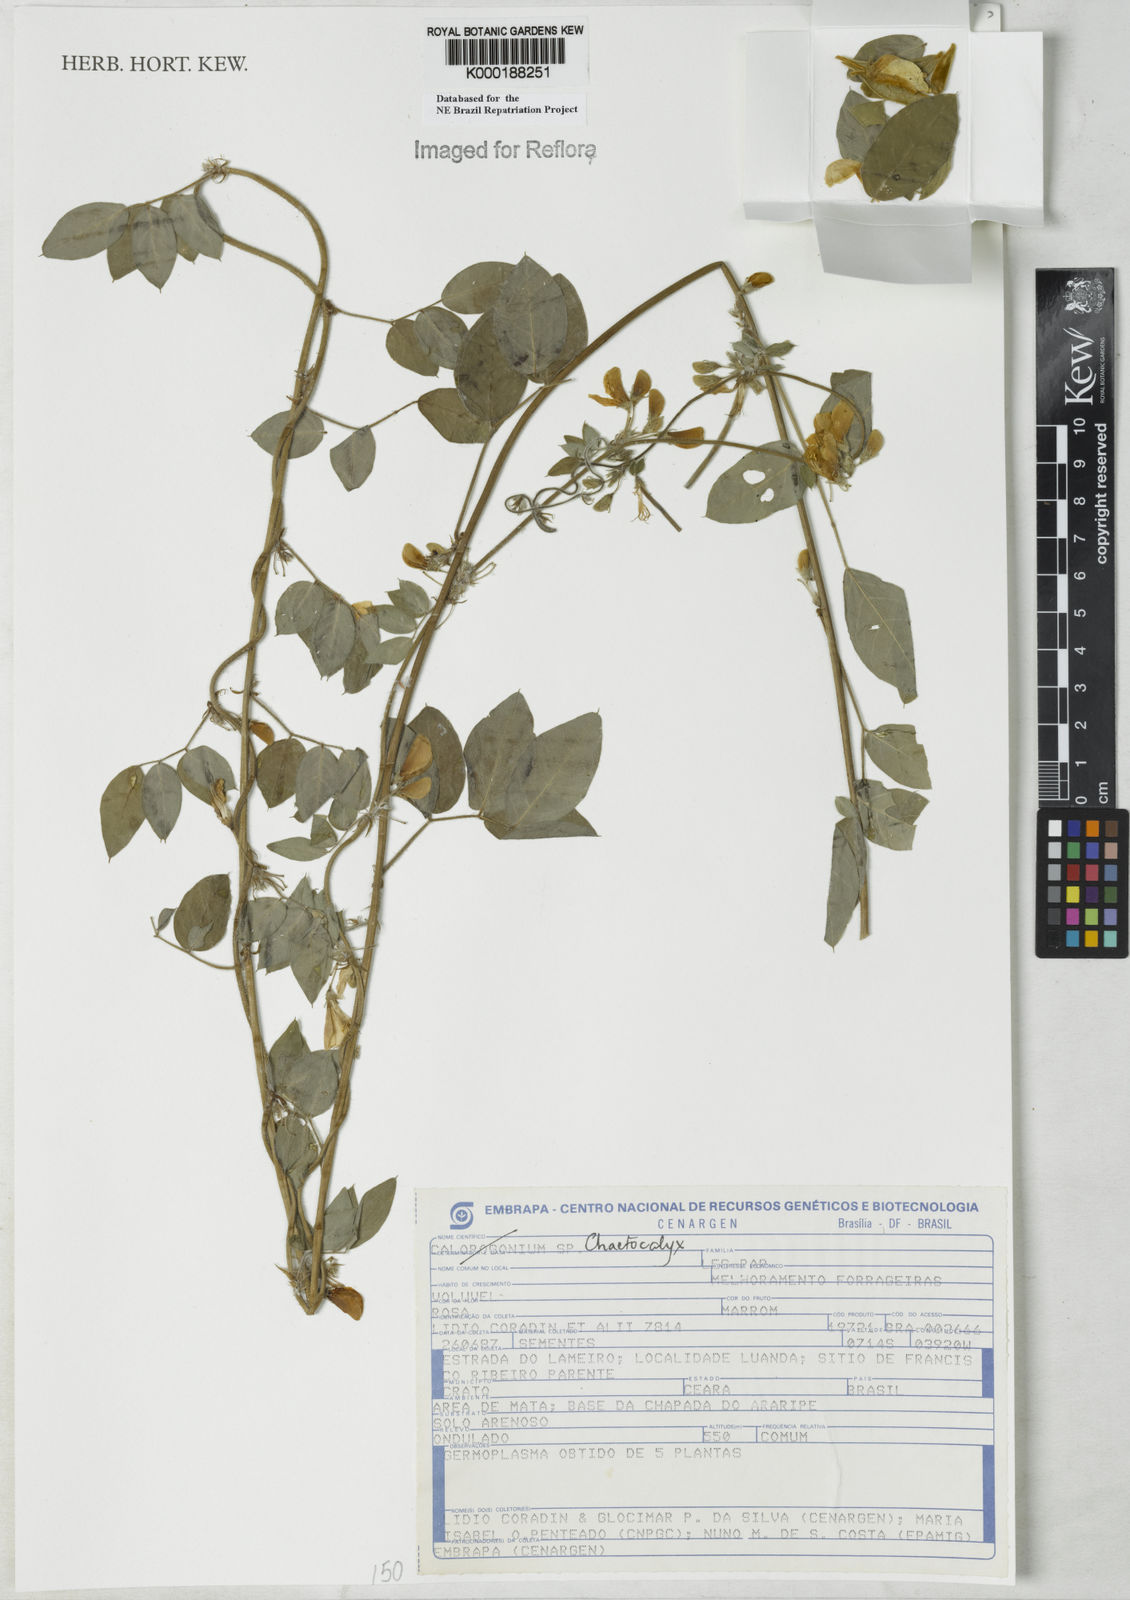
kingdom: Plantae
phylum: Tracheophyta
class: Magnoliopsida
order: Fabales
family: Fabaceae
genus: Nissolia
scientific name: Nissolia
